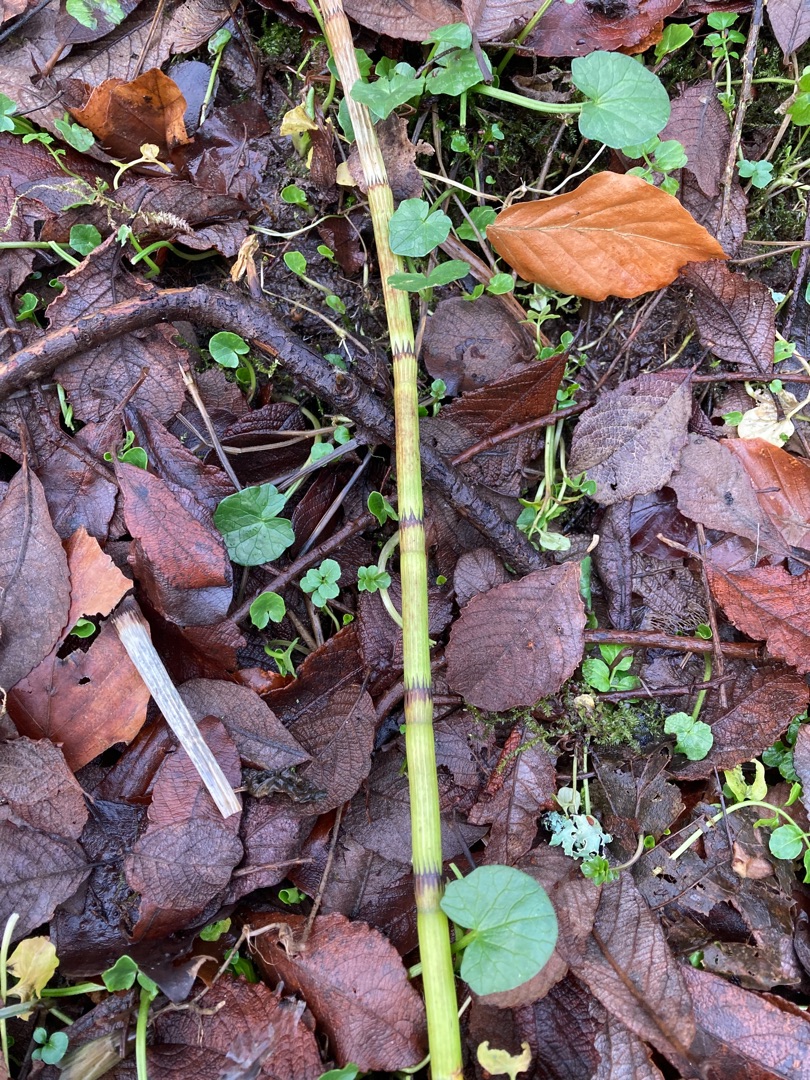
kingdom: Plantae
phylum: Tracheophyta
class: Polypodiopsida
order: Equisetales
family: Equisetaceae
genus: Equisetum
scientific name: Equisetum fluviatile
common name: Dynd-padderok
